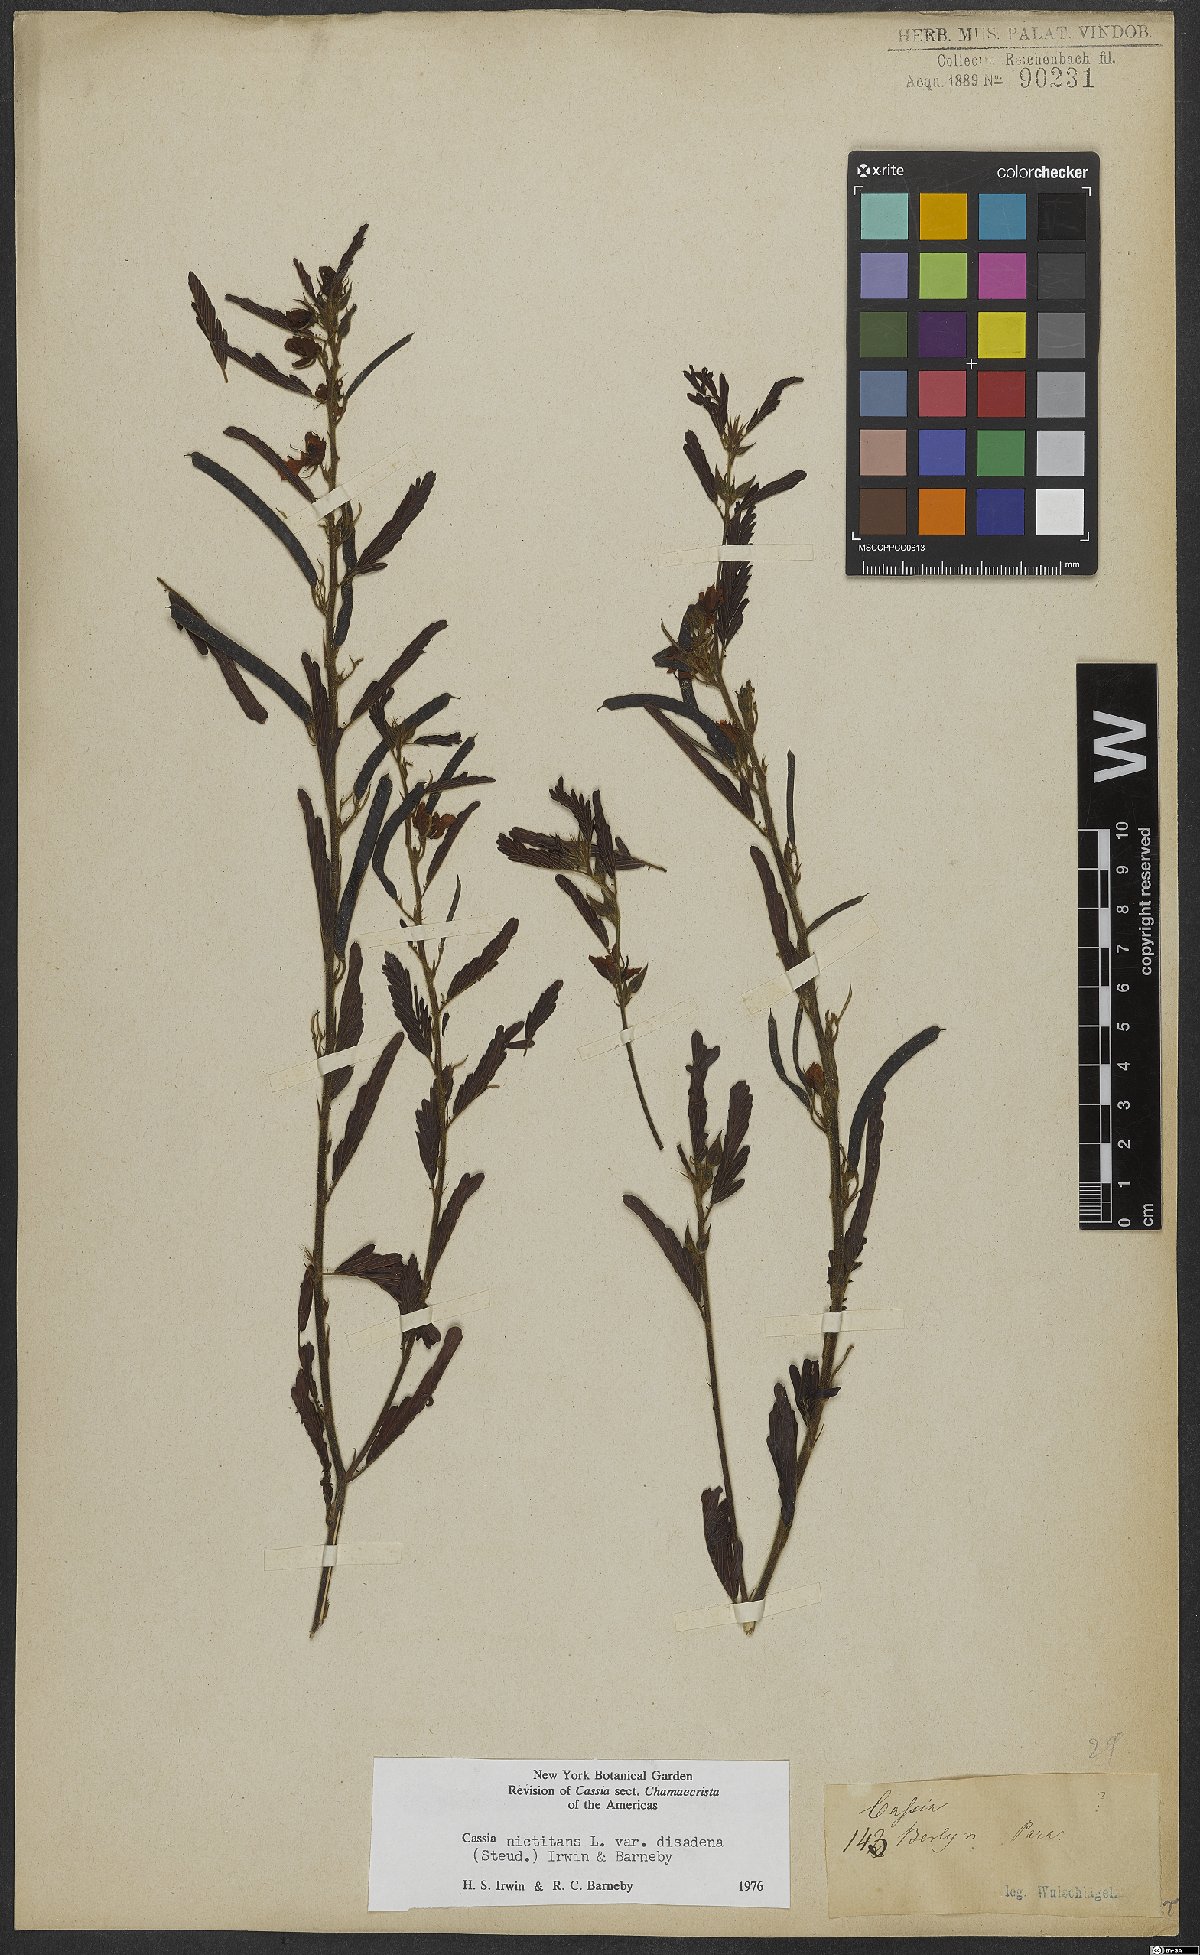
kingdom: Plantae
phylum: Tracheophyta
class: Magnoliopsida
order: Fabales
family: Fabaceae
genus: Chamaecrista
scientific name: Chamaecrista nictitans
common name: Sensitive cassia
